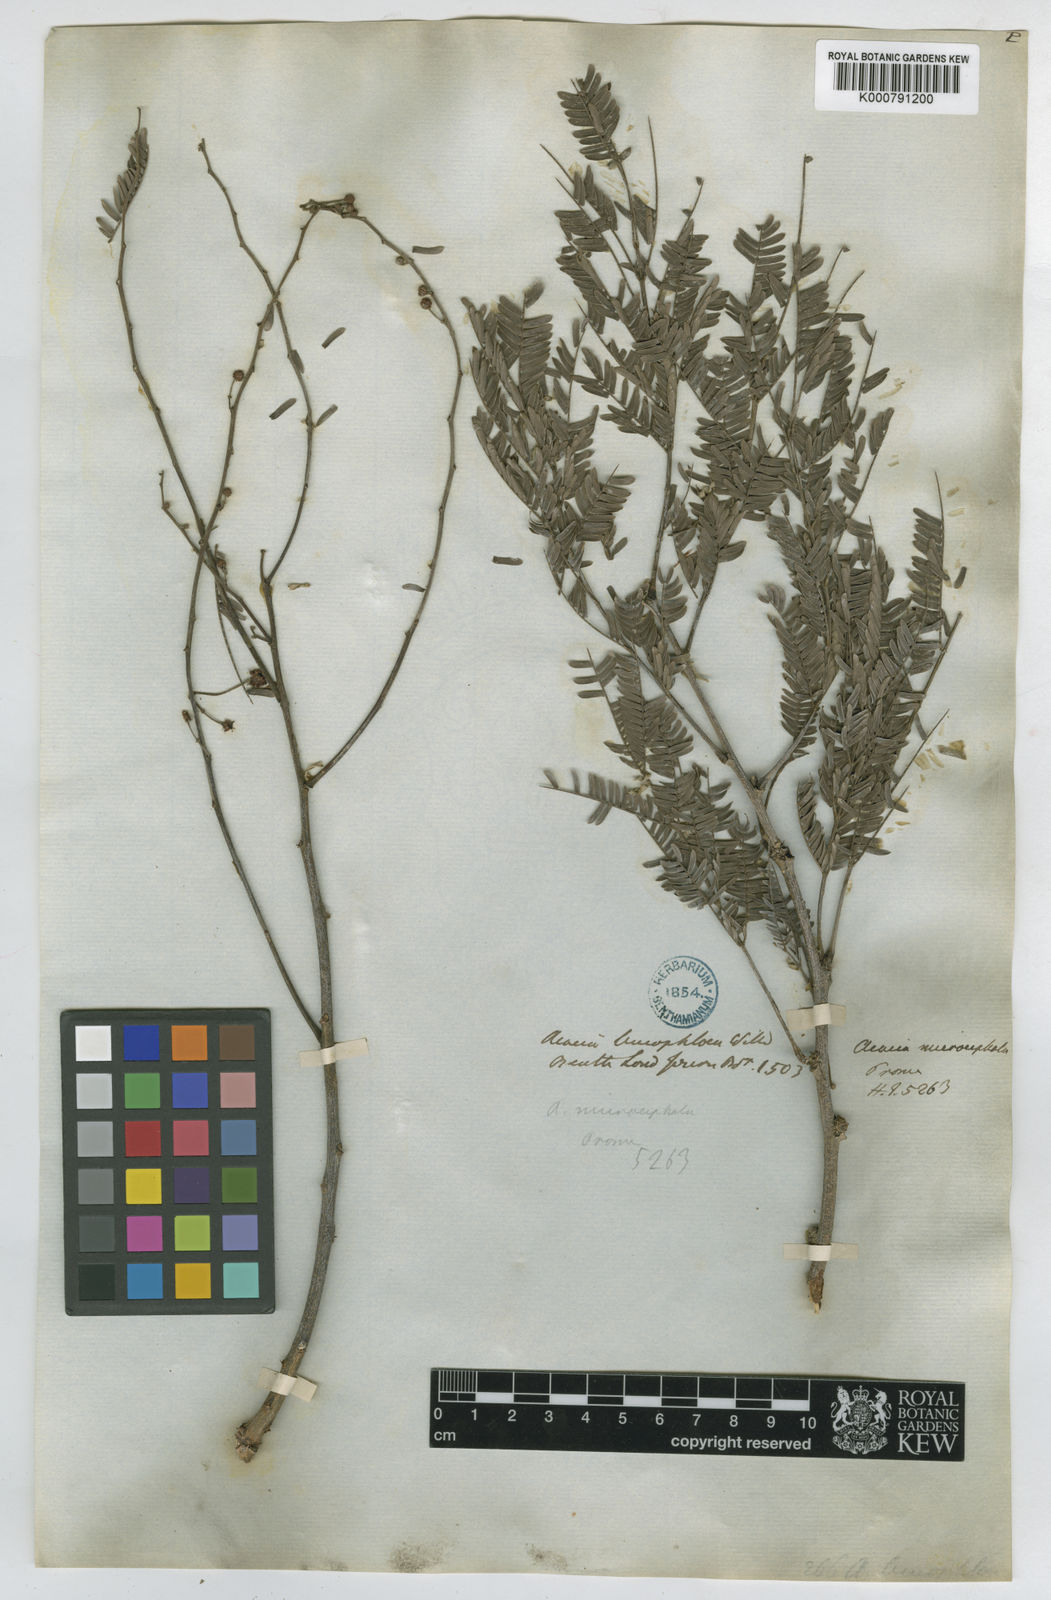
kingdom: Plantae
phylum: Tracheophyta
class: Magnoliopsida
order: Fabales
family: Fabaceae
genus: Acacia
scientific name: Acacia
